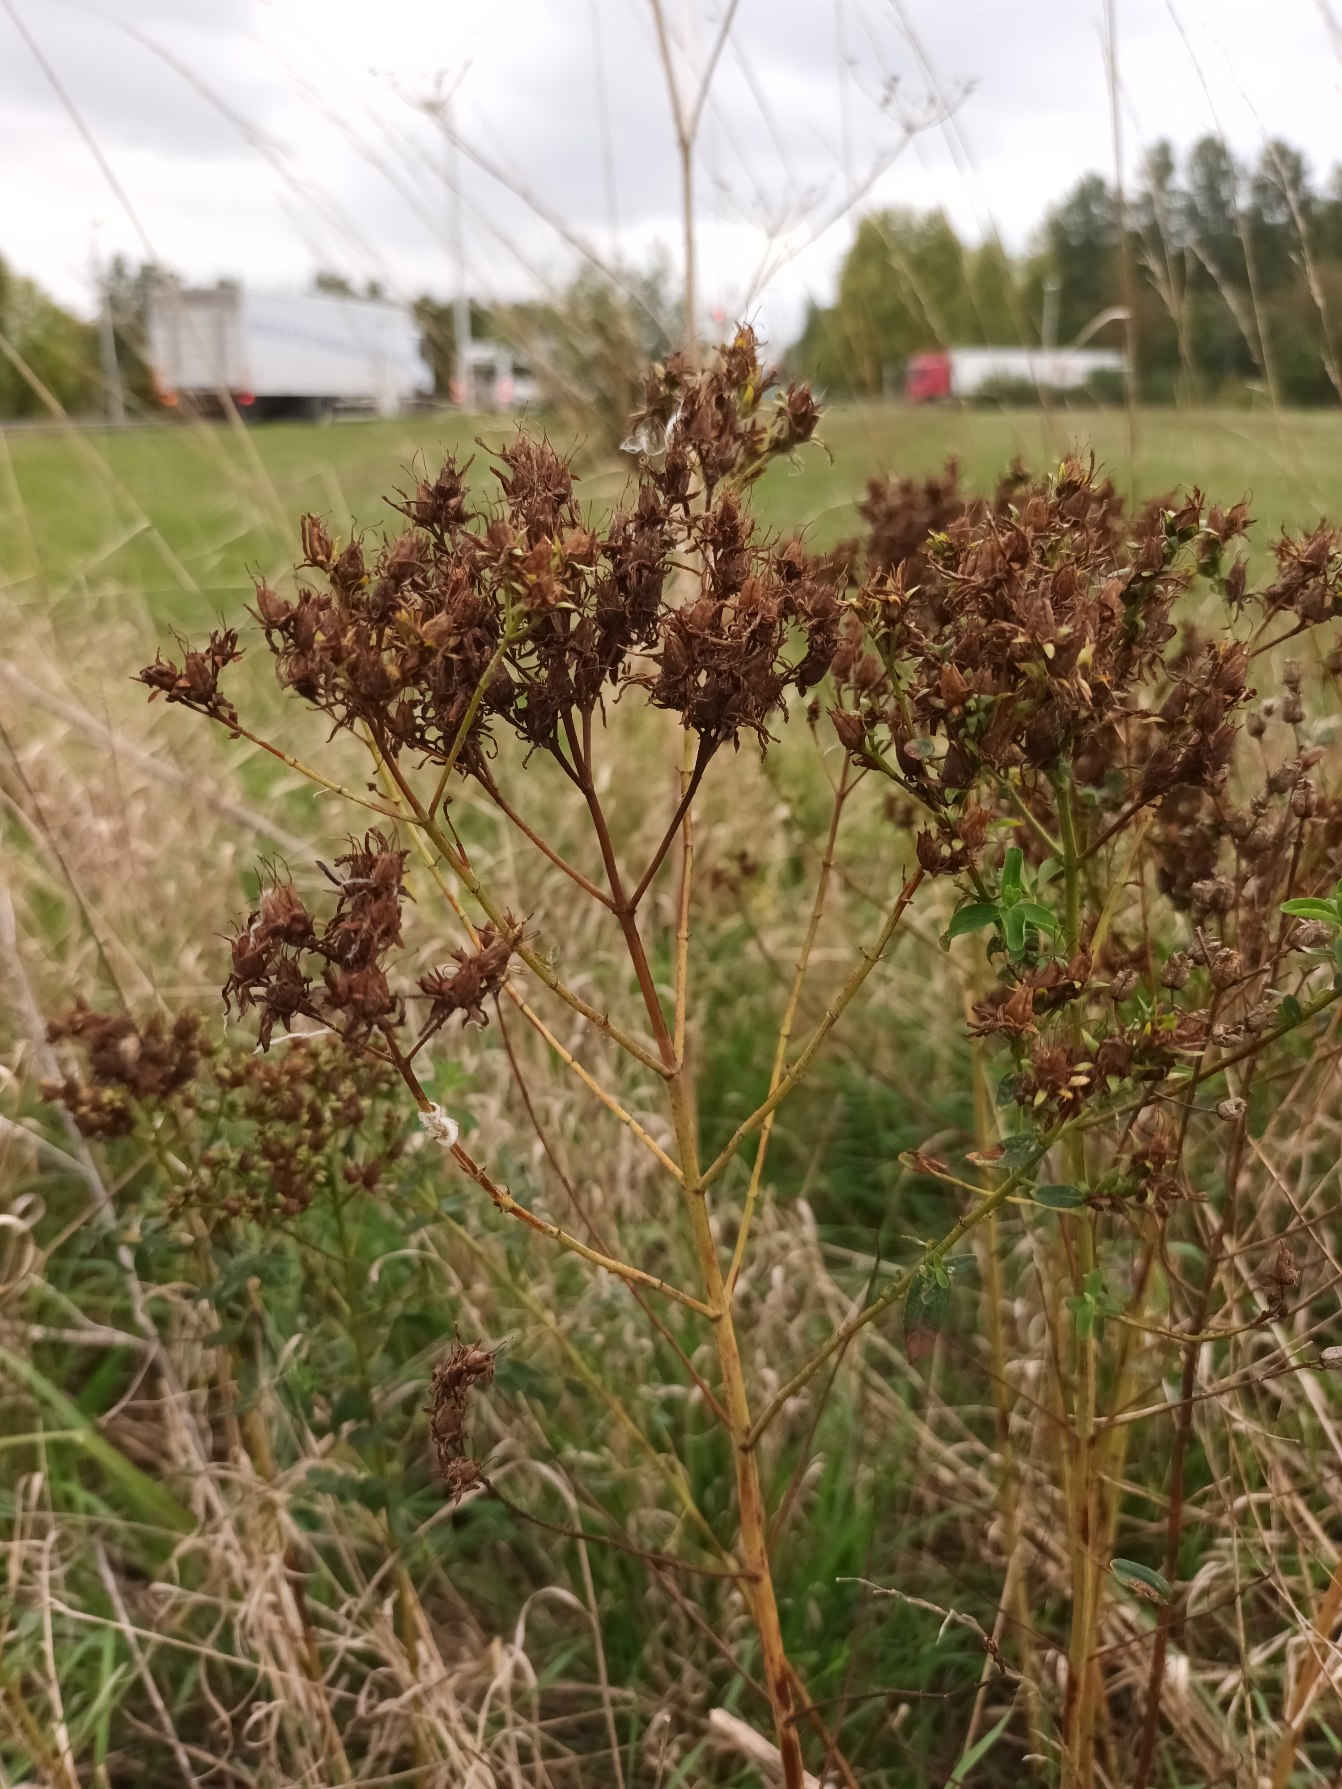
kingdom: Plantae
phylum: Tracheophyta
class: Magnoliopsida
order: Malpighiales
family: Hypericaceae
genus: Hypericum
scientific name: Hypericum perforatum
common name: Prikbladet perikon
